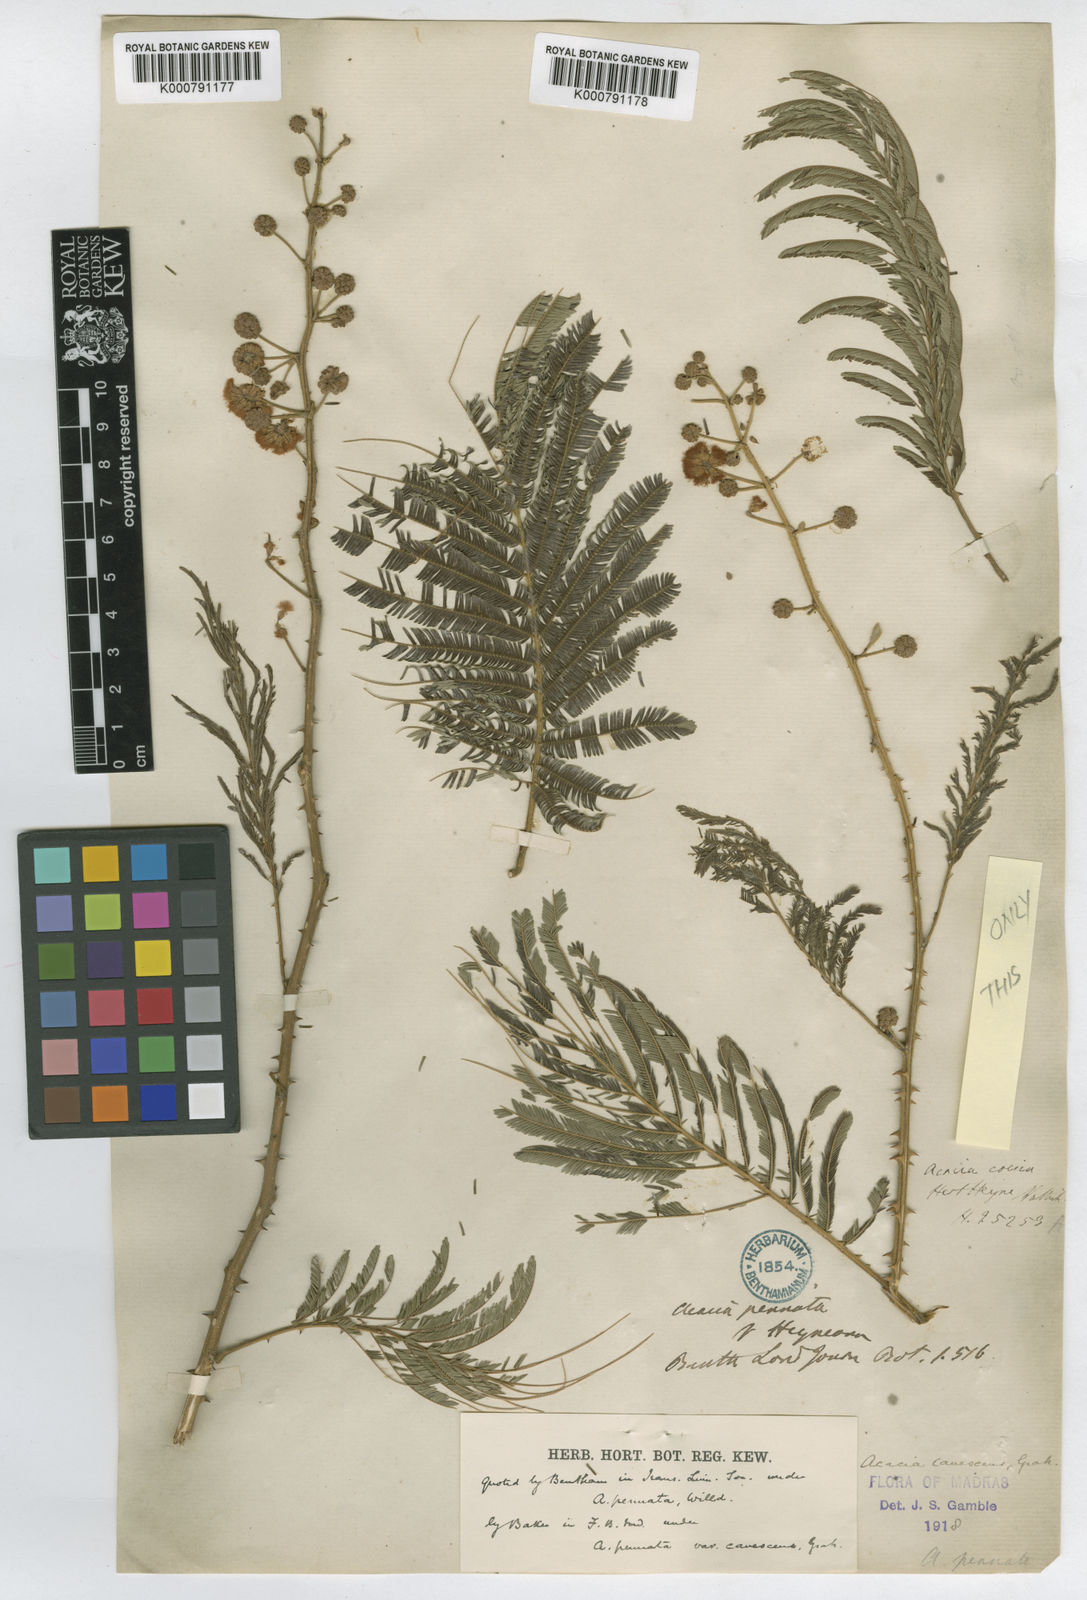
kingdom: Plantae
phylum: Tracheophyta
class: Magnoliopsida
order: Fabales
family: Fabaceae
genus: Senegalia
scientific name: Senegalia pennata
